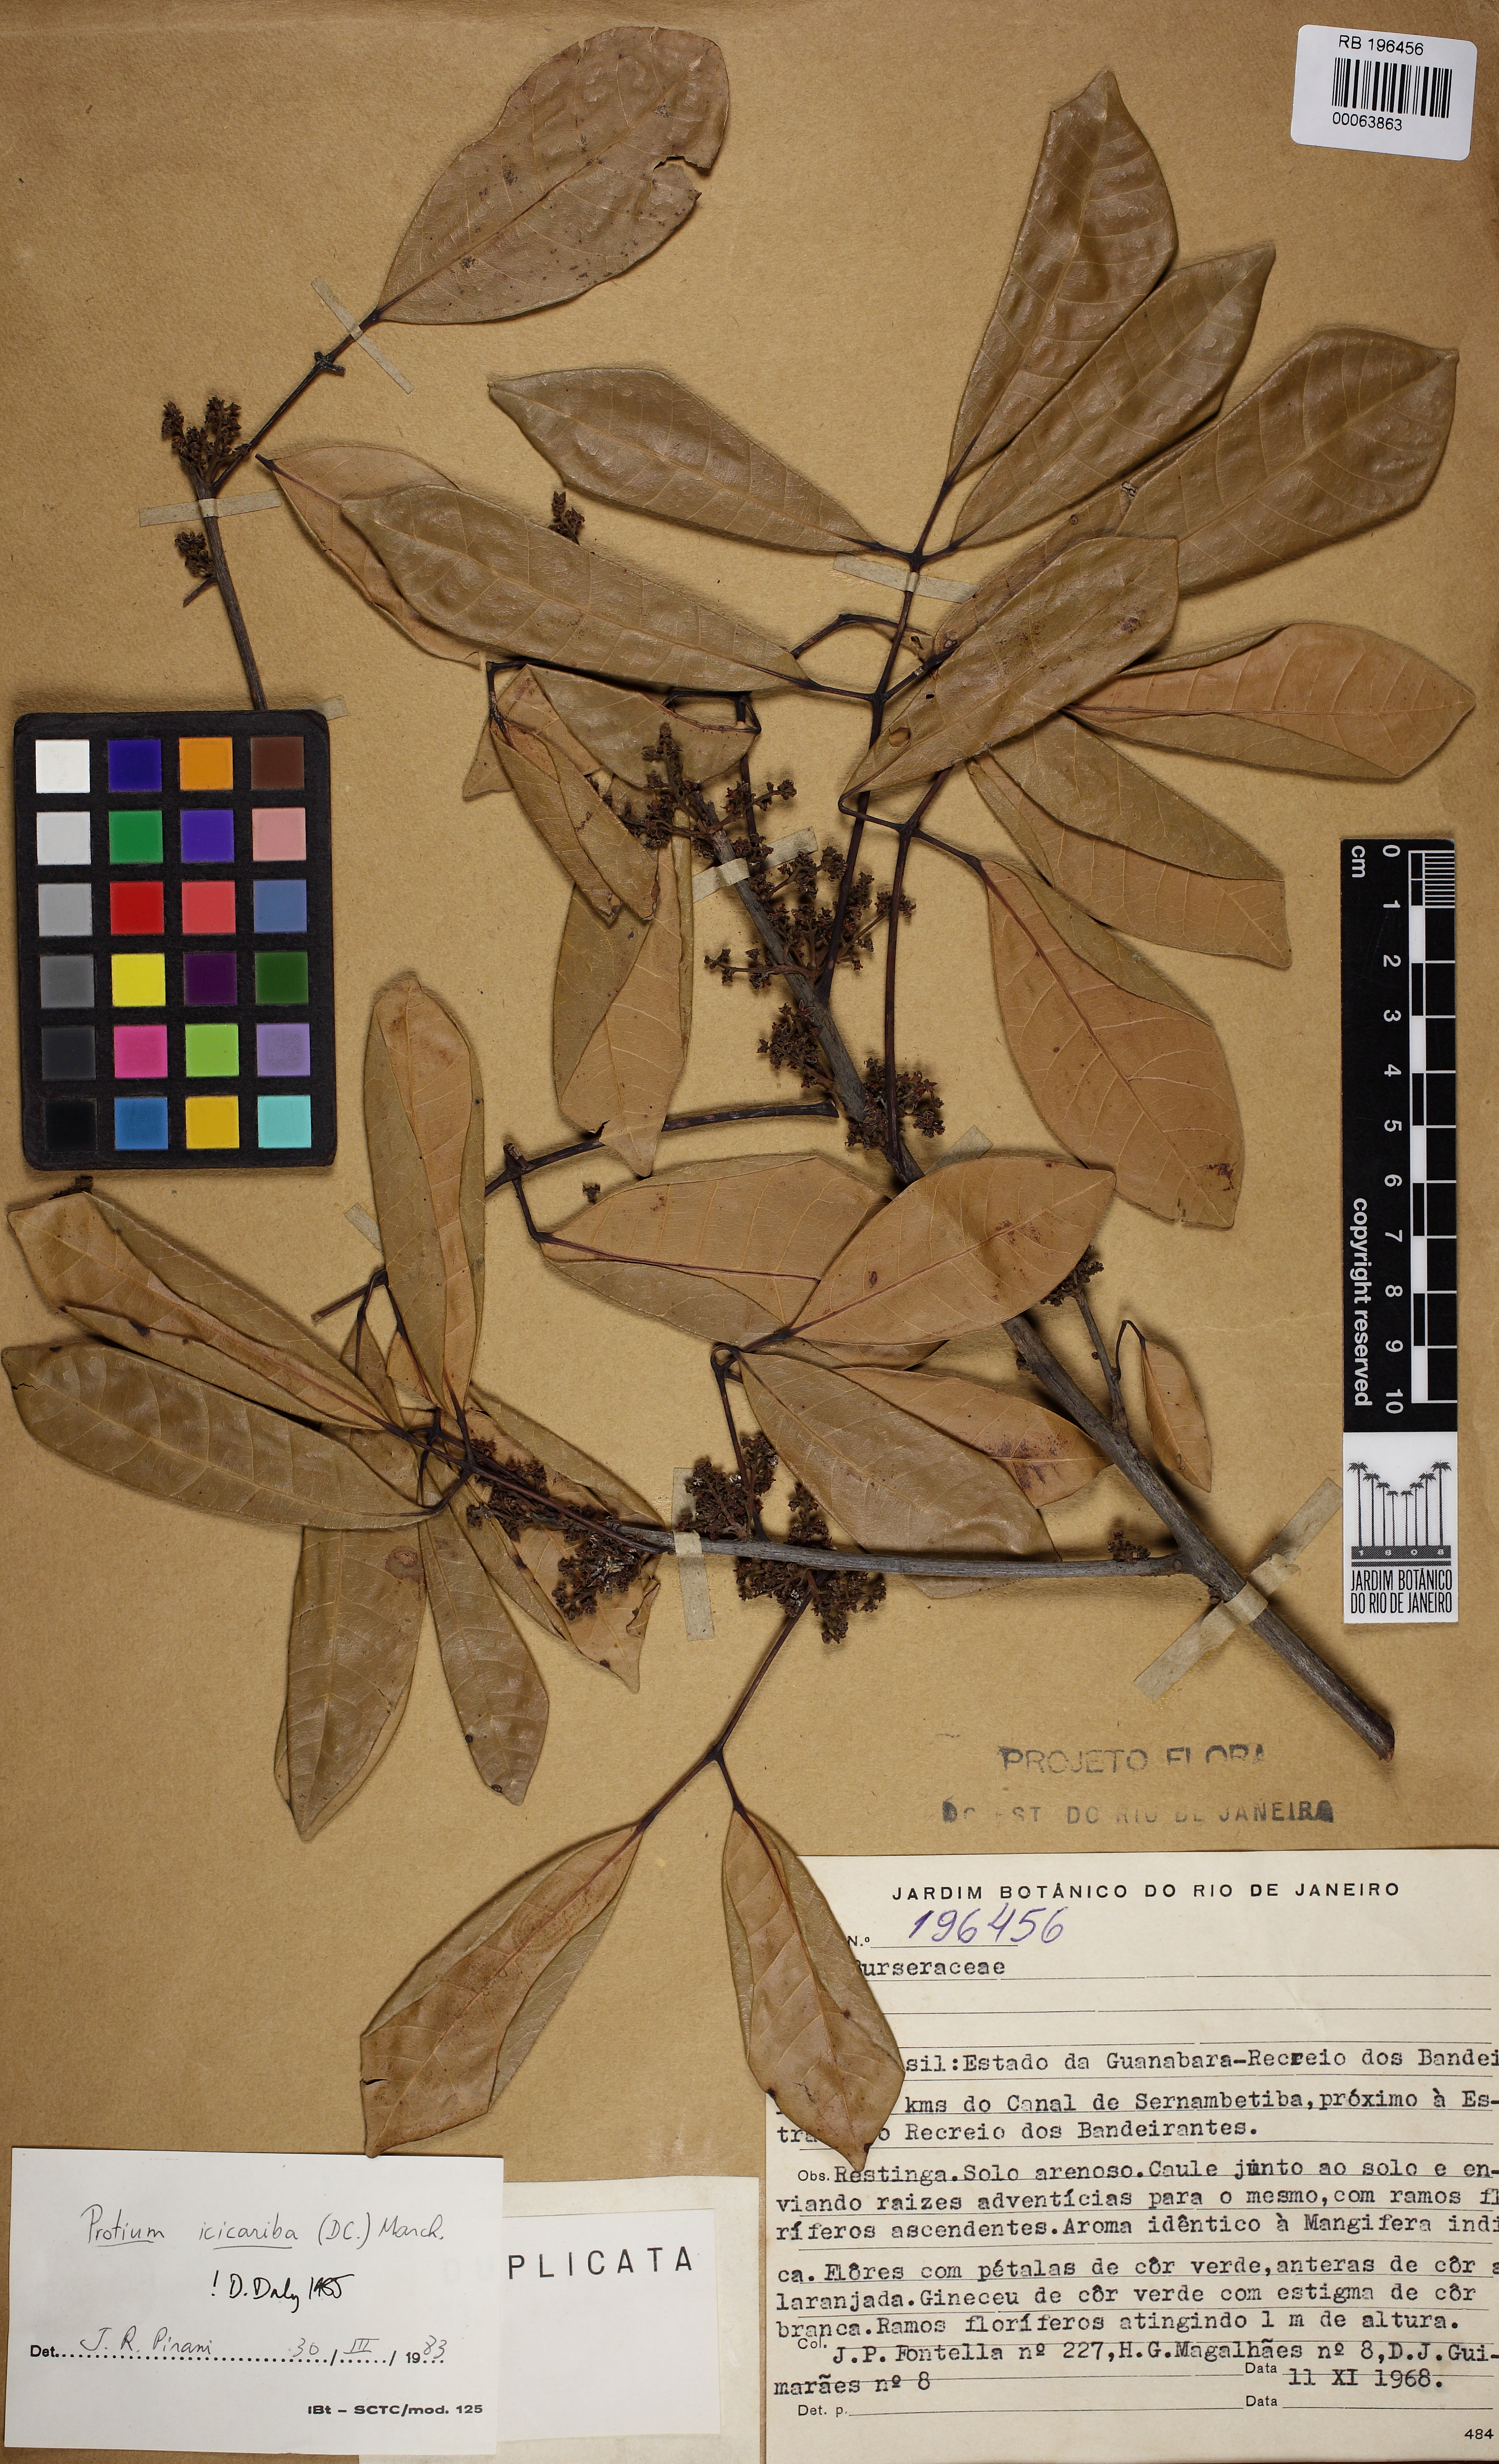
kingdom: Plantae
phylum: Tracheophyta
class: Magnoliopsida
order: Sapindales
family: Burseraceae
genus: Protium
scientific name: Protium icicariba
